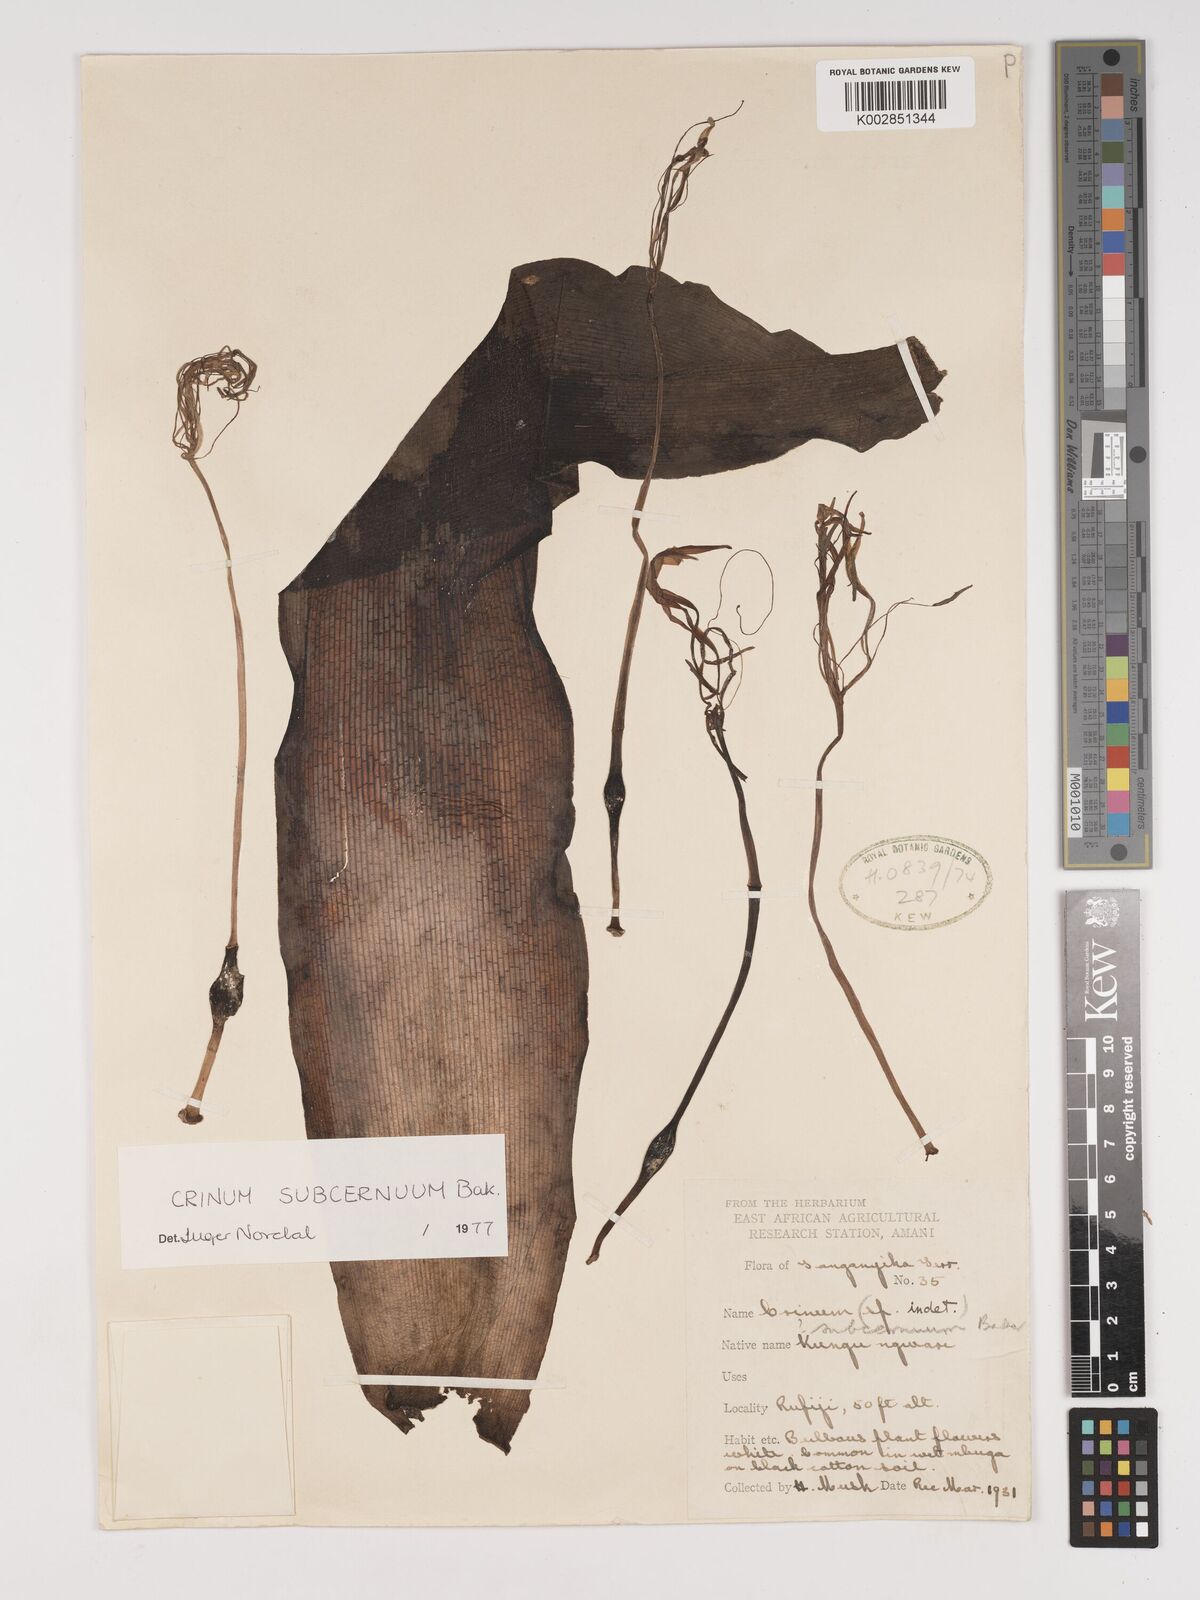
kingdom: Plantae
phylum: Tracheophyta
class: Liliopsida
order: Asparagales
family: Amaryllidaceae
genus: Crinum
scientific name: Crinum subcernuum
